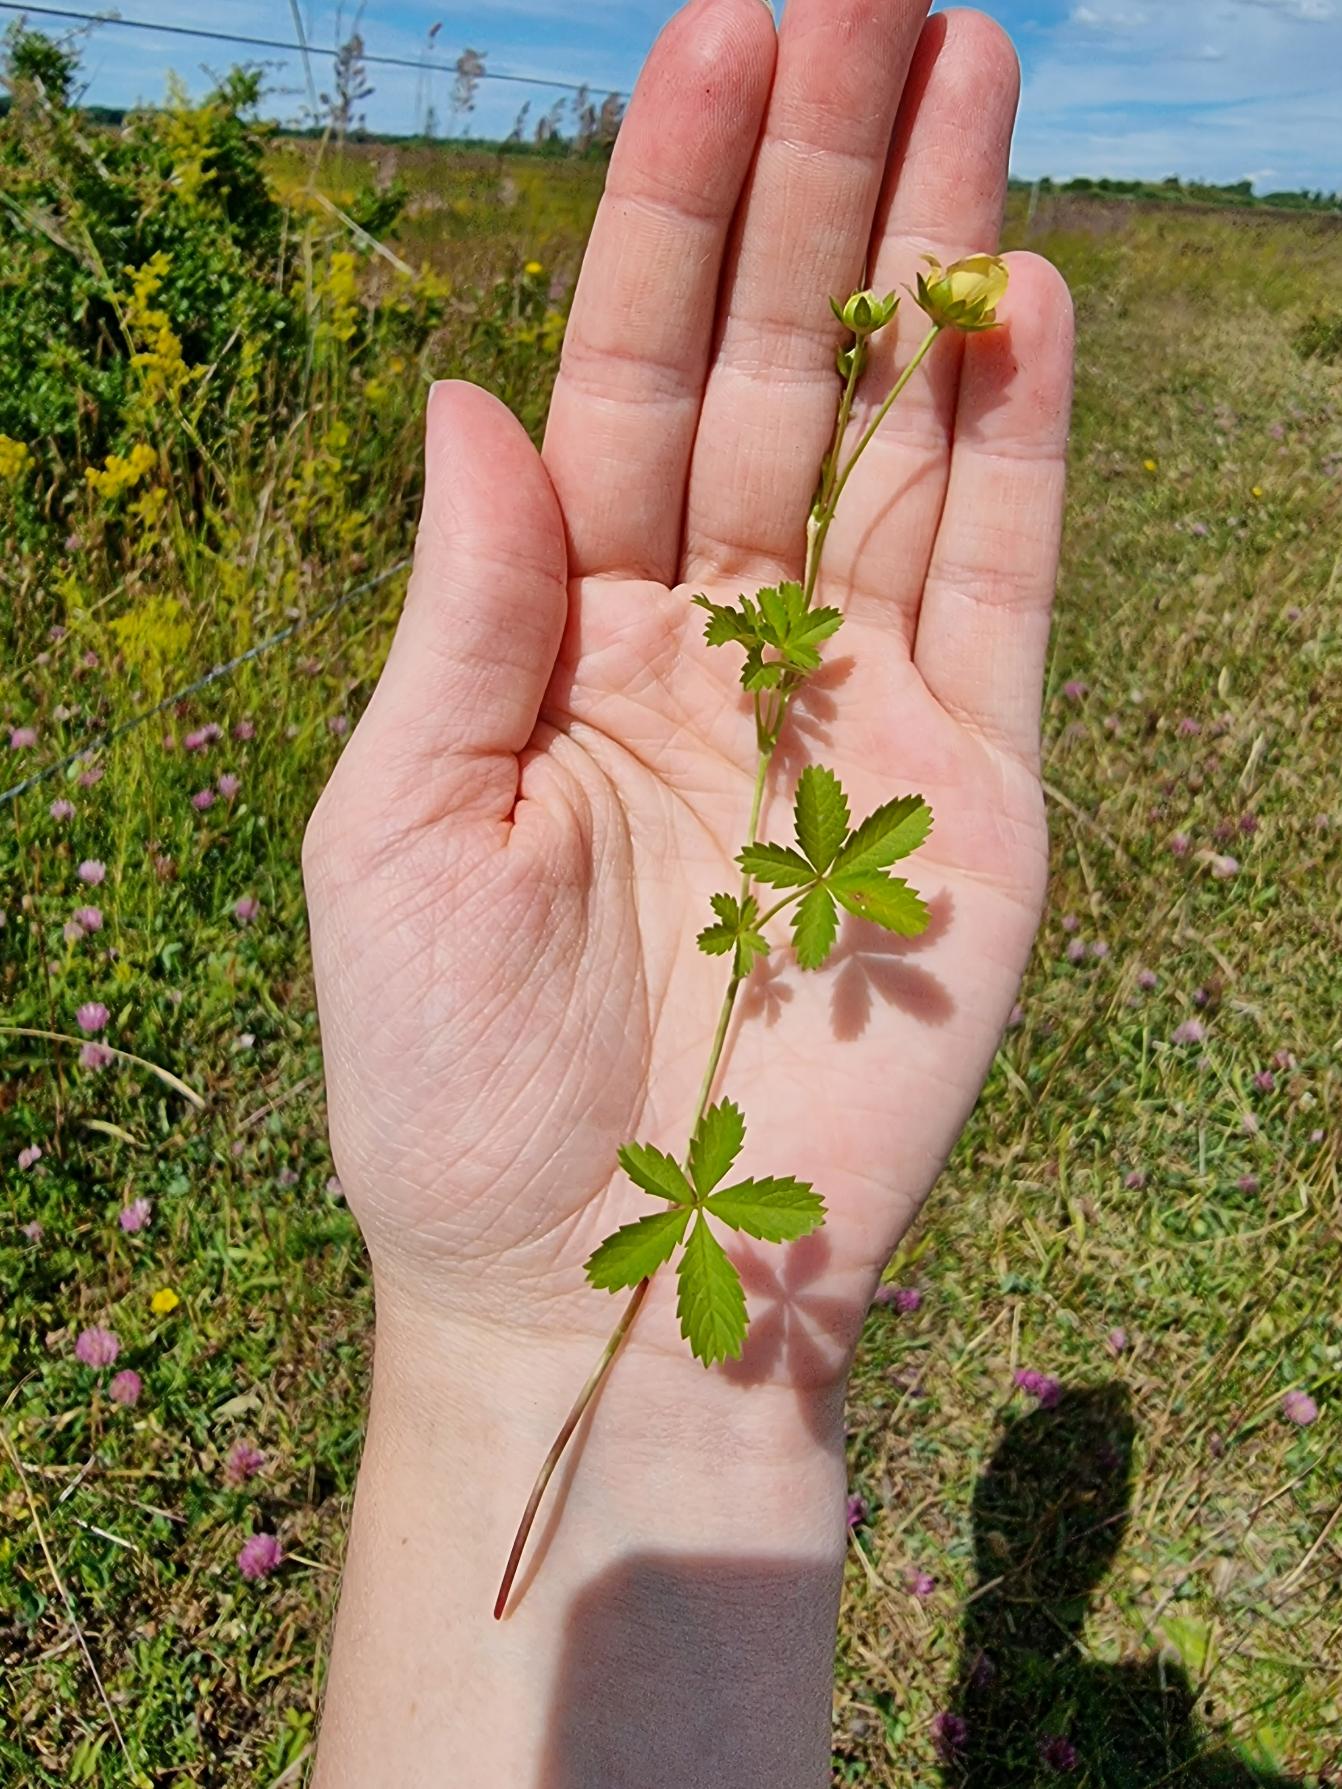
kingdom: Plantae
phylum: Tracheophyta
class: Magnoliopsida
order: Rosales
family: Rosaceae
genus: Potentilla
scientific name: Potentilla reptans
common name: Krybende potentil
